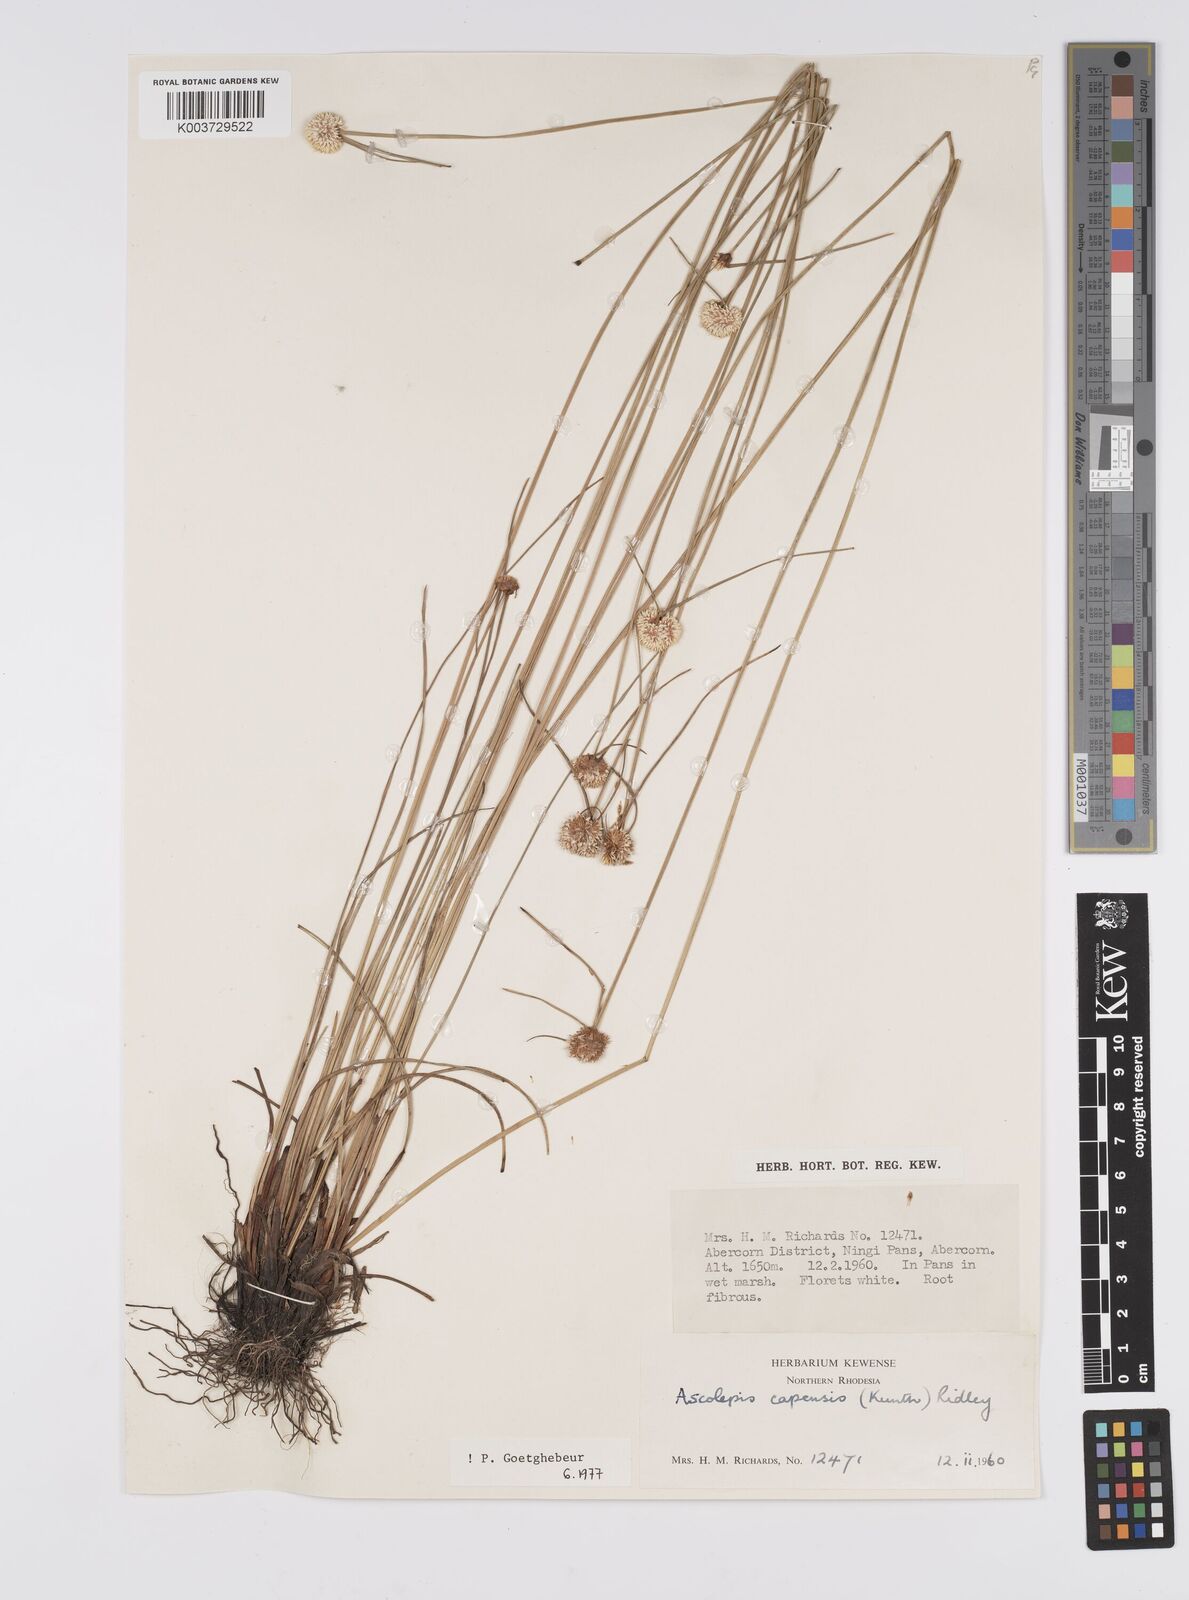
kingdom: Plantae
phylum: Tracheophyta
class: Liliopsida
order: Poales
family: Cyperaceae
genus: Cyperus
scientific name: Cyperus
